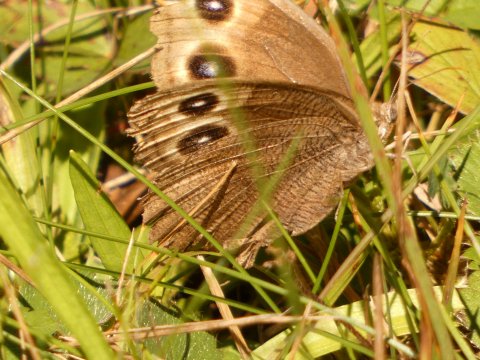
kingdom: Animalia
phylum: Arthropoda
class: Insecta
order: Lepidoptera
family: Nymphalidae
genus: Cercyonis
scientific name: Cercyonis pegala
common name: Common Wood-Nymph
